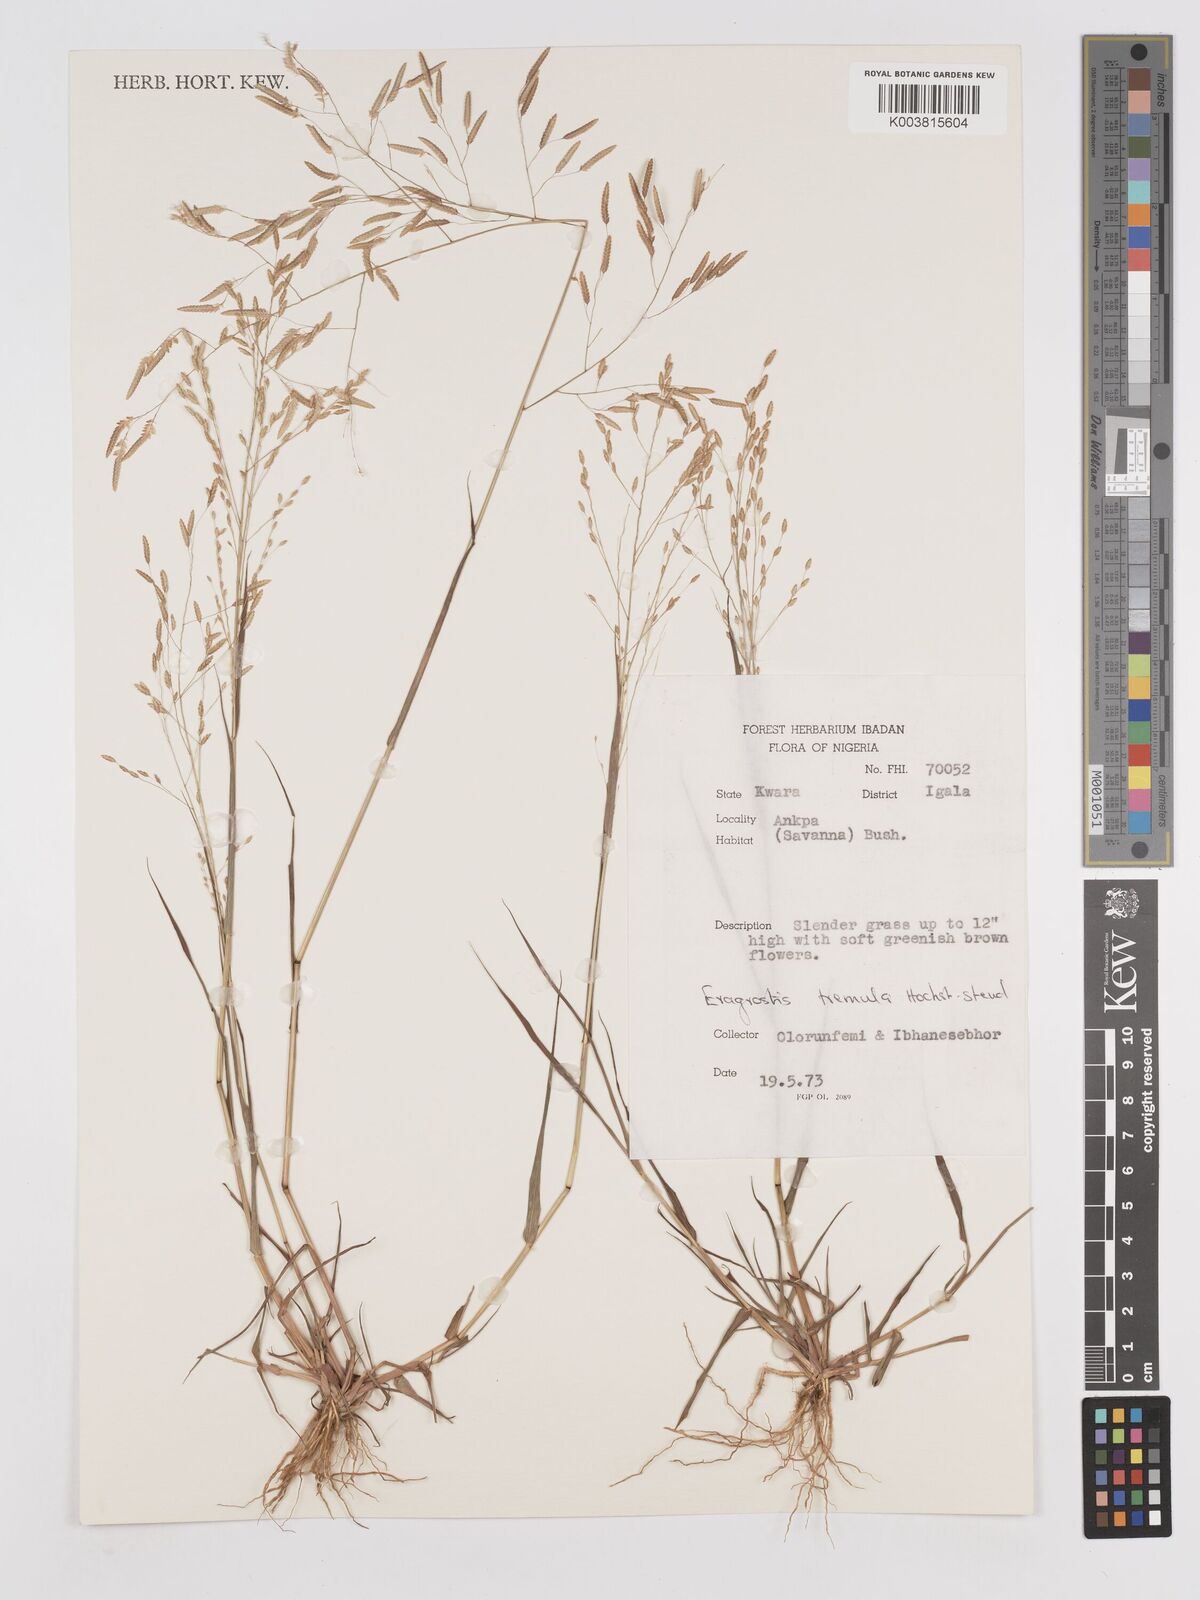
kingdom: Plantae
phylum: Tracheophyta
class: Liliopsida
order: Poales
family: Poaceae
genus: Eragrostis
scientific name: Eragrostis tremula
